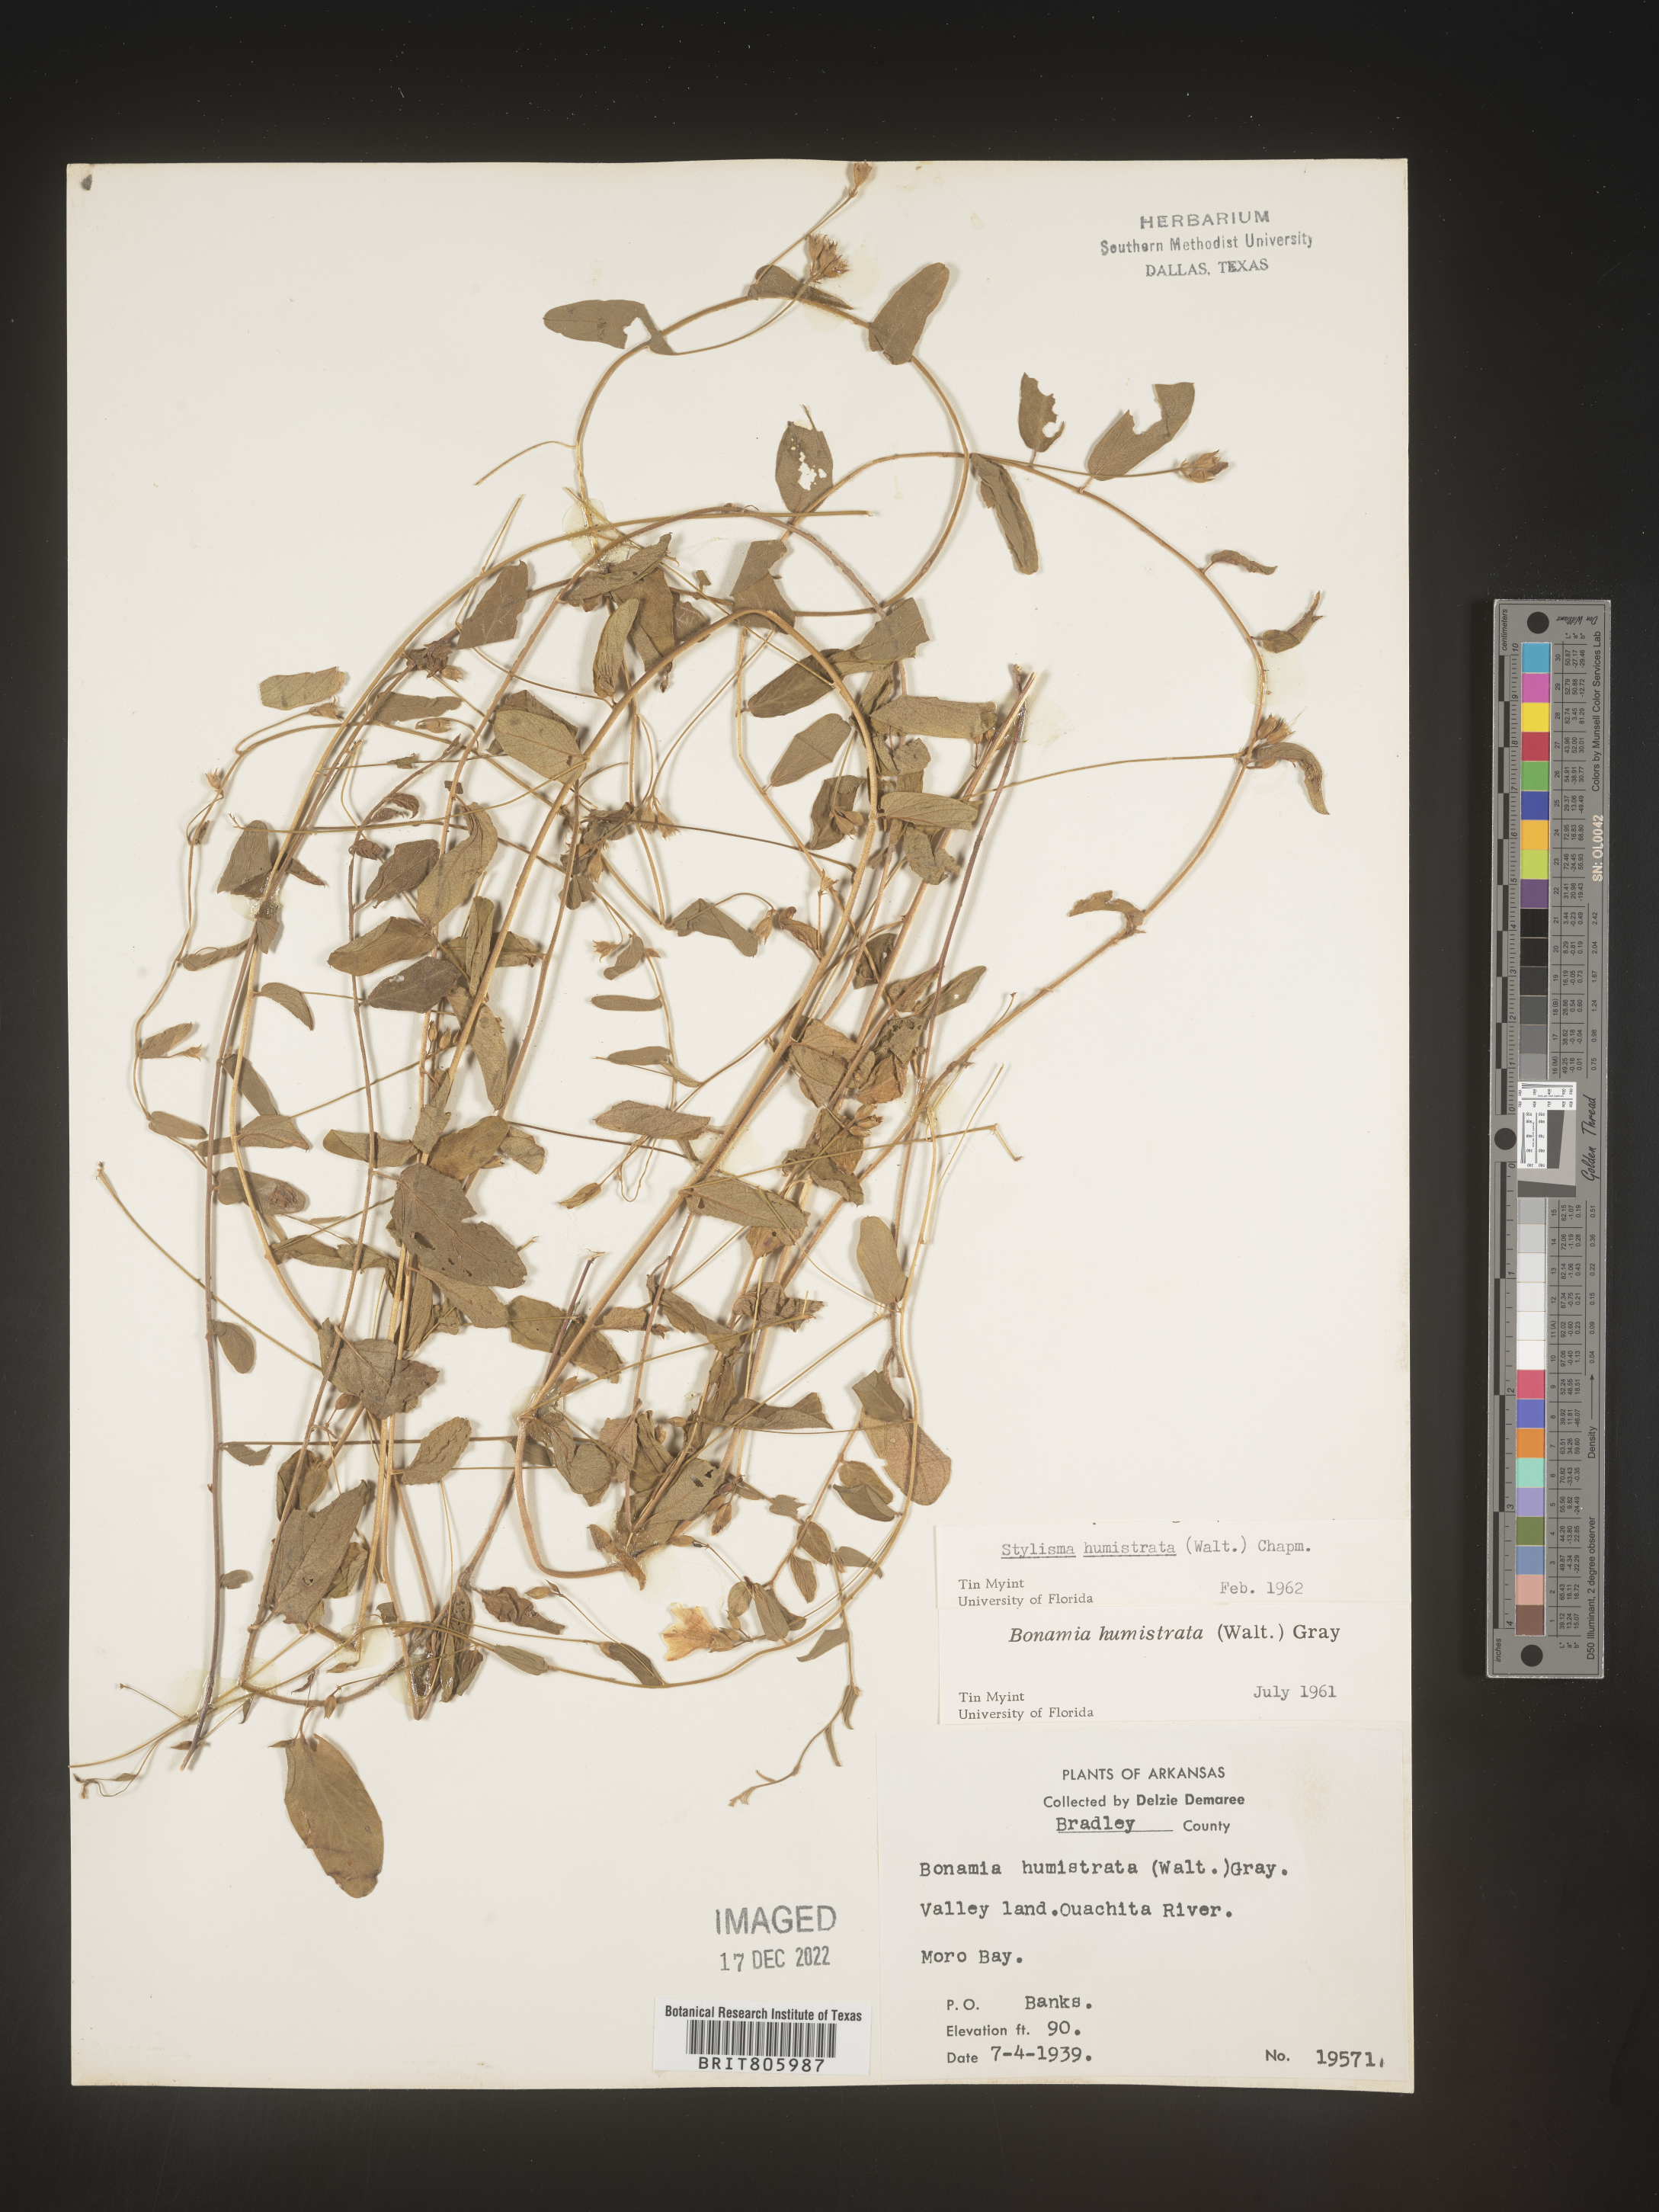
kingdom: Plantae
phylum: Tracheophyta
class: Magnoliopsida
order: Solanales
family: Convolvulaceae
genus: Stylisma
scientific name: Stylisma humistrata
